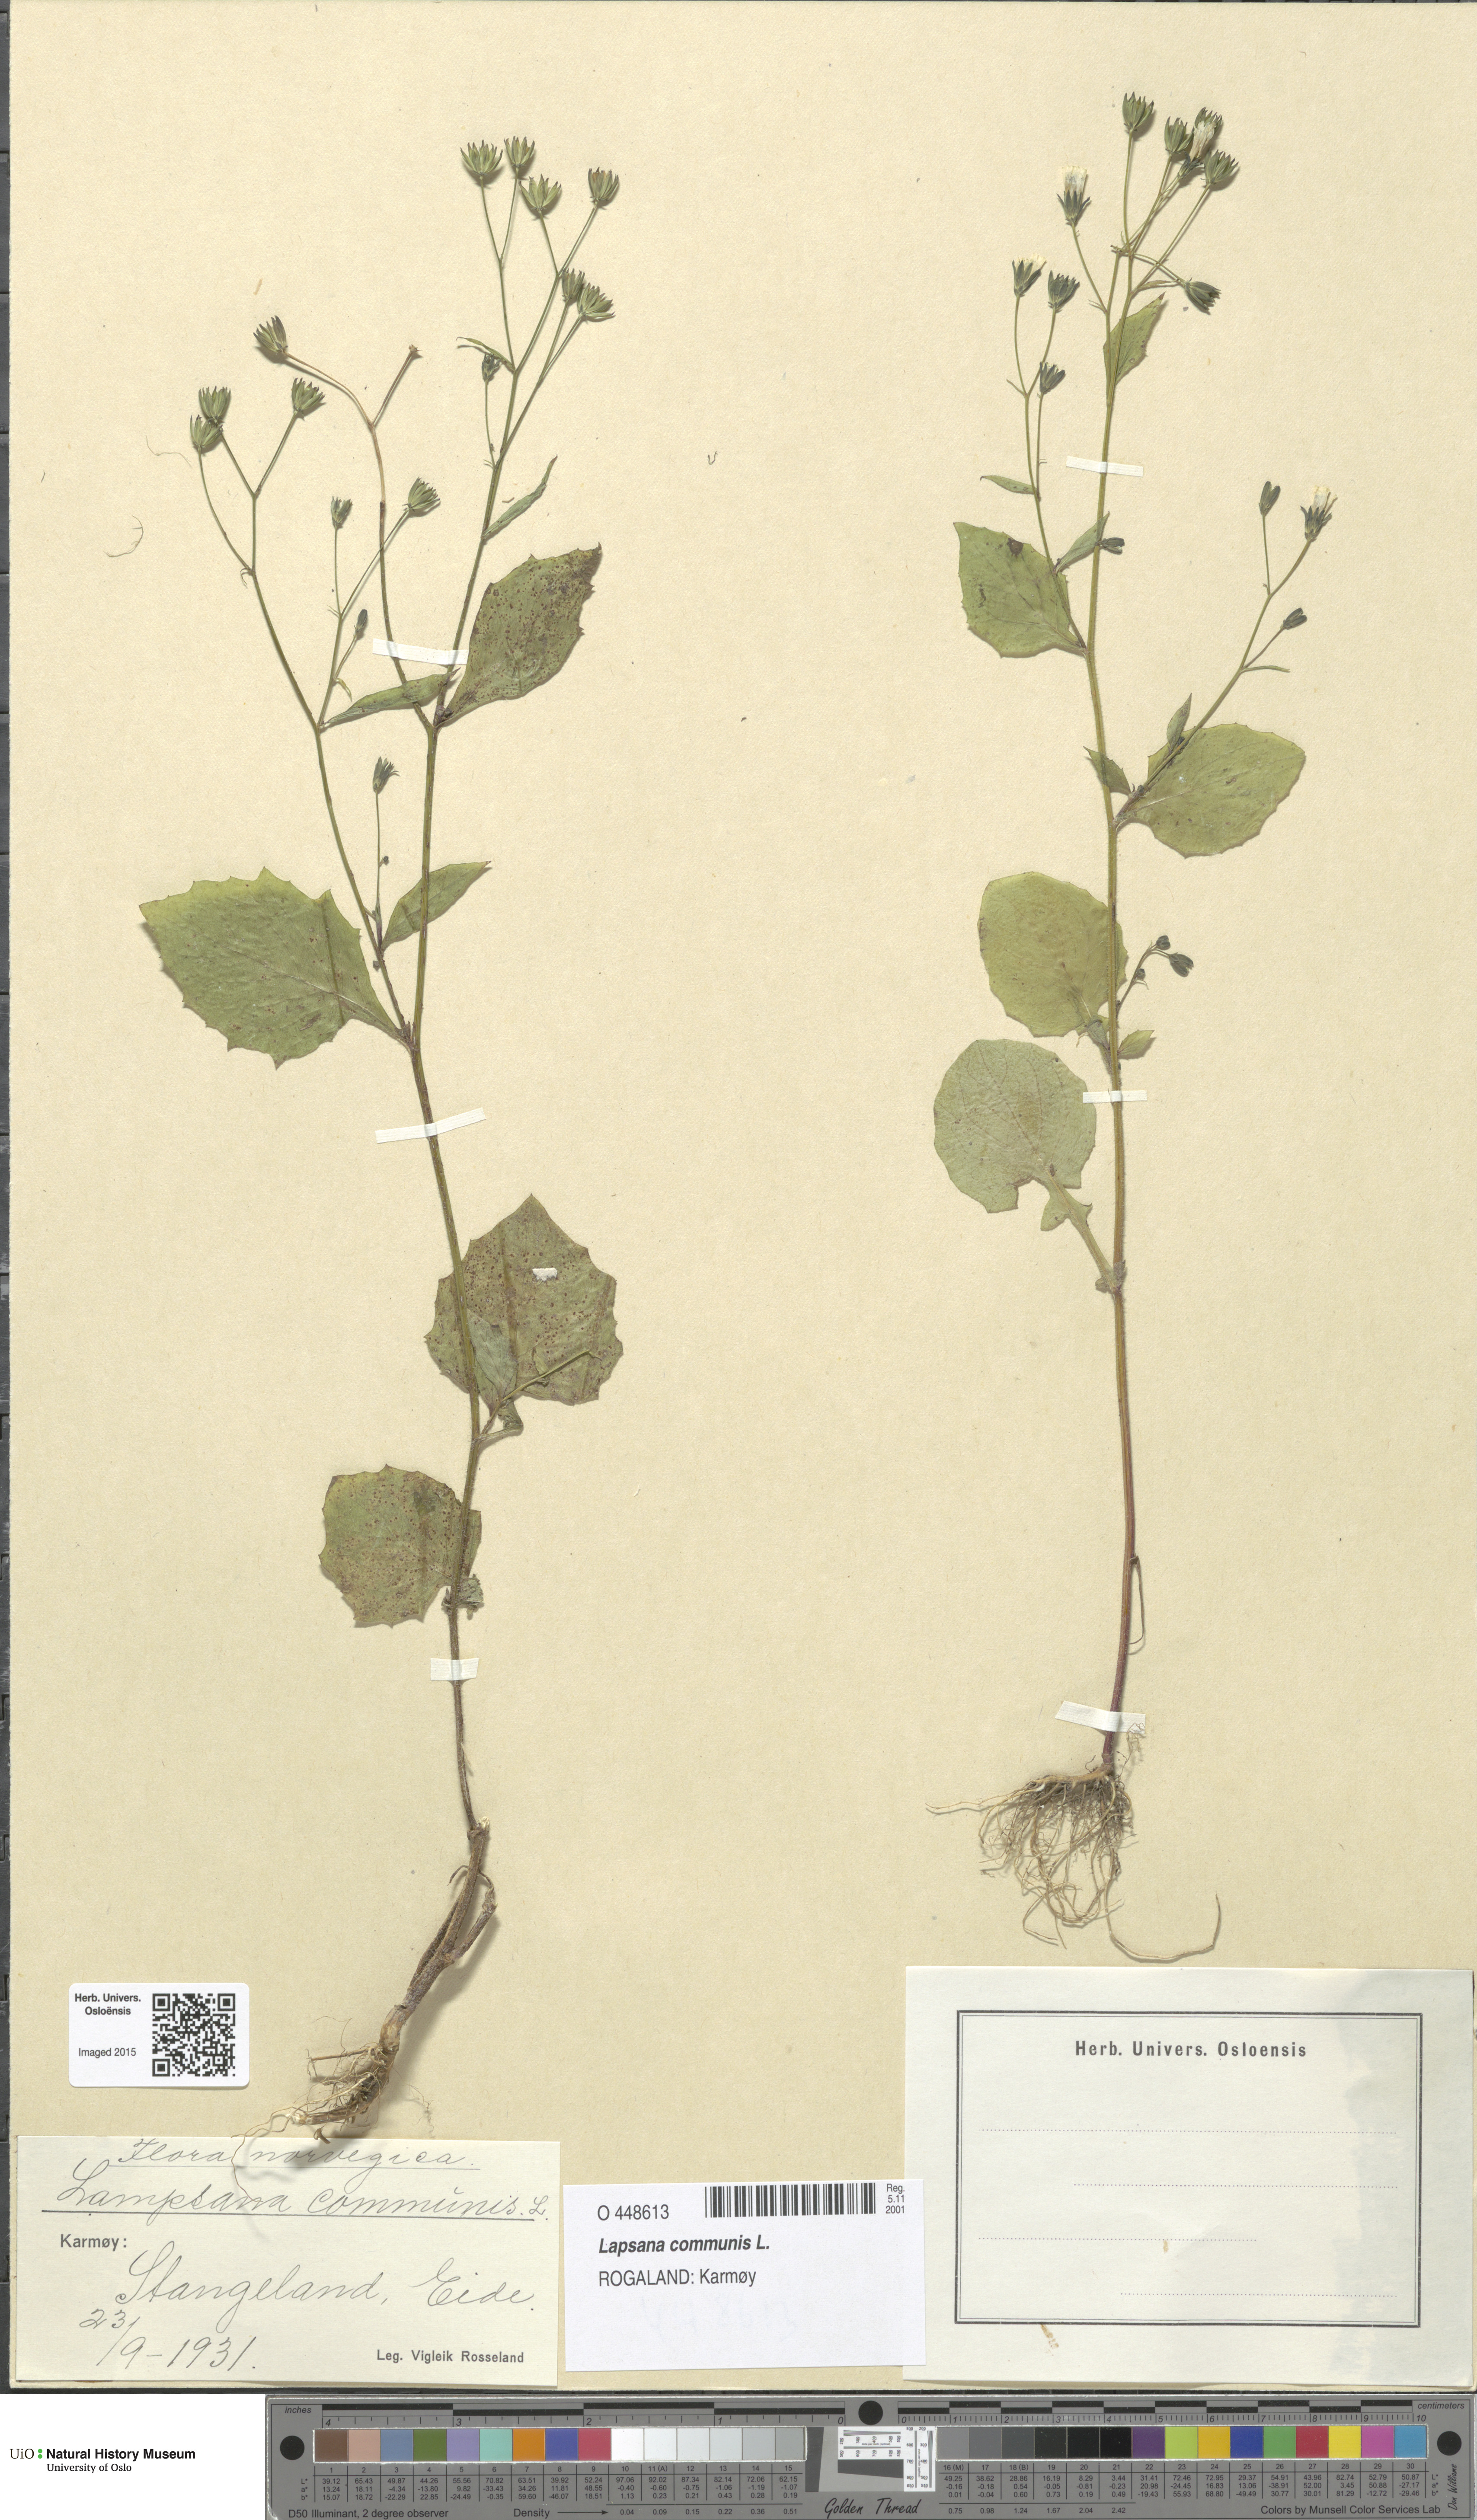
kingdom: Plantae
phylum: Tracheophyta
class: Magnoliopsida
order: Asterales
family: Asteraceae
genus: Lapsana
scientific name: Lapsana communis
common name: Nipplewort
